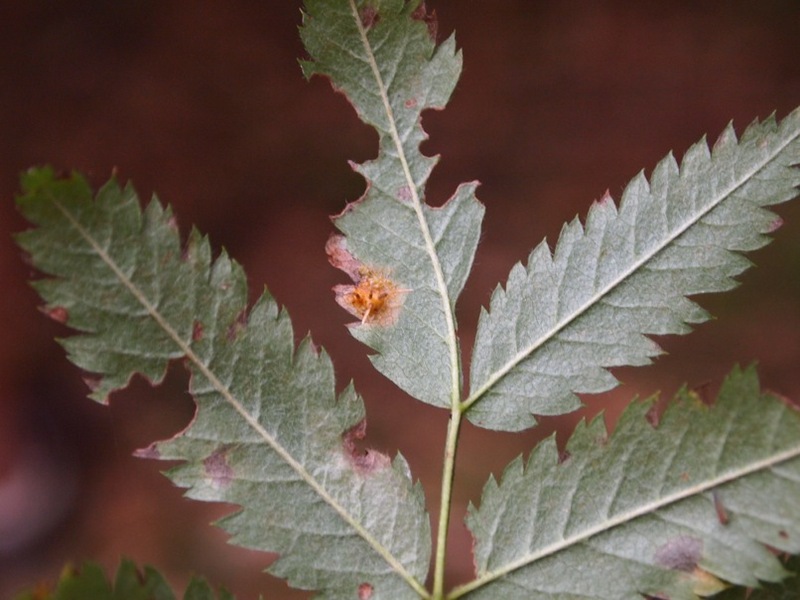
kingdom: Fungi
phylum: Basidiomycota
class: Pucciniomycetes
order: Pucciniales
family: Gymnosporangiaceae
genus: Gymnosporangium
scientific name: Gymnosporangium cornutum
